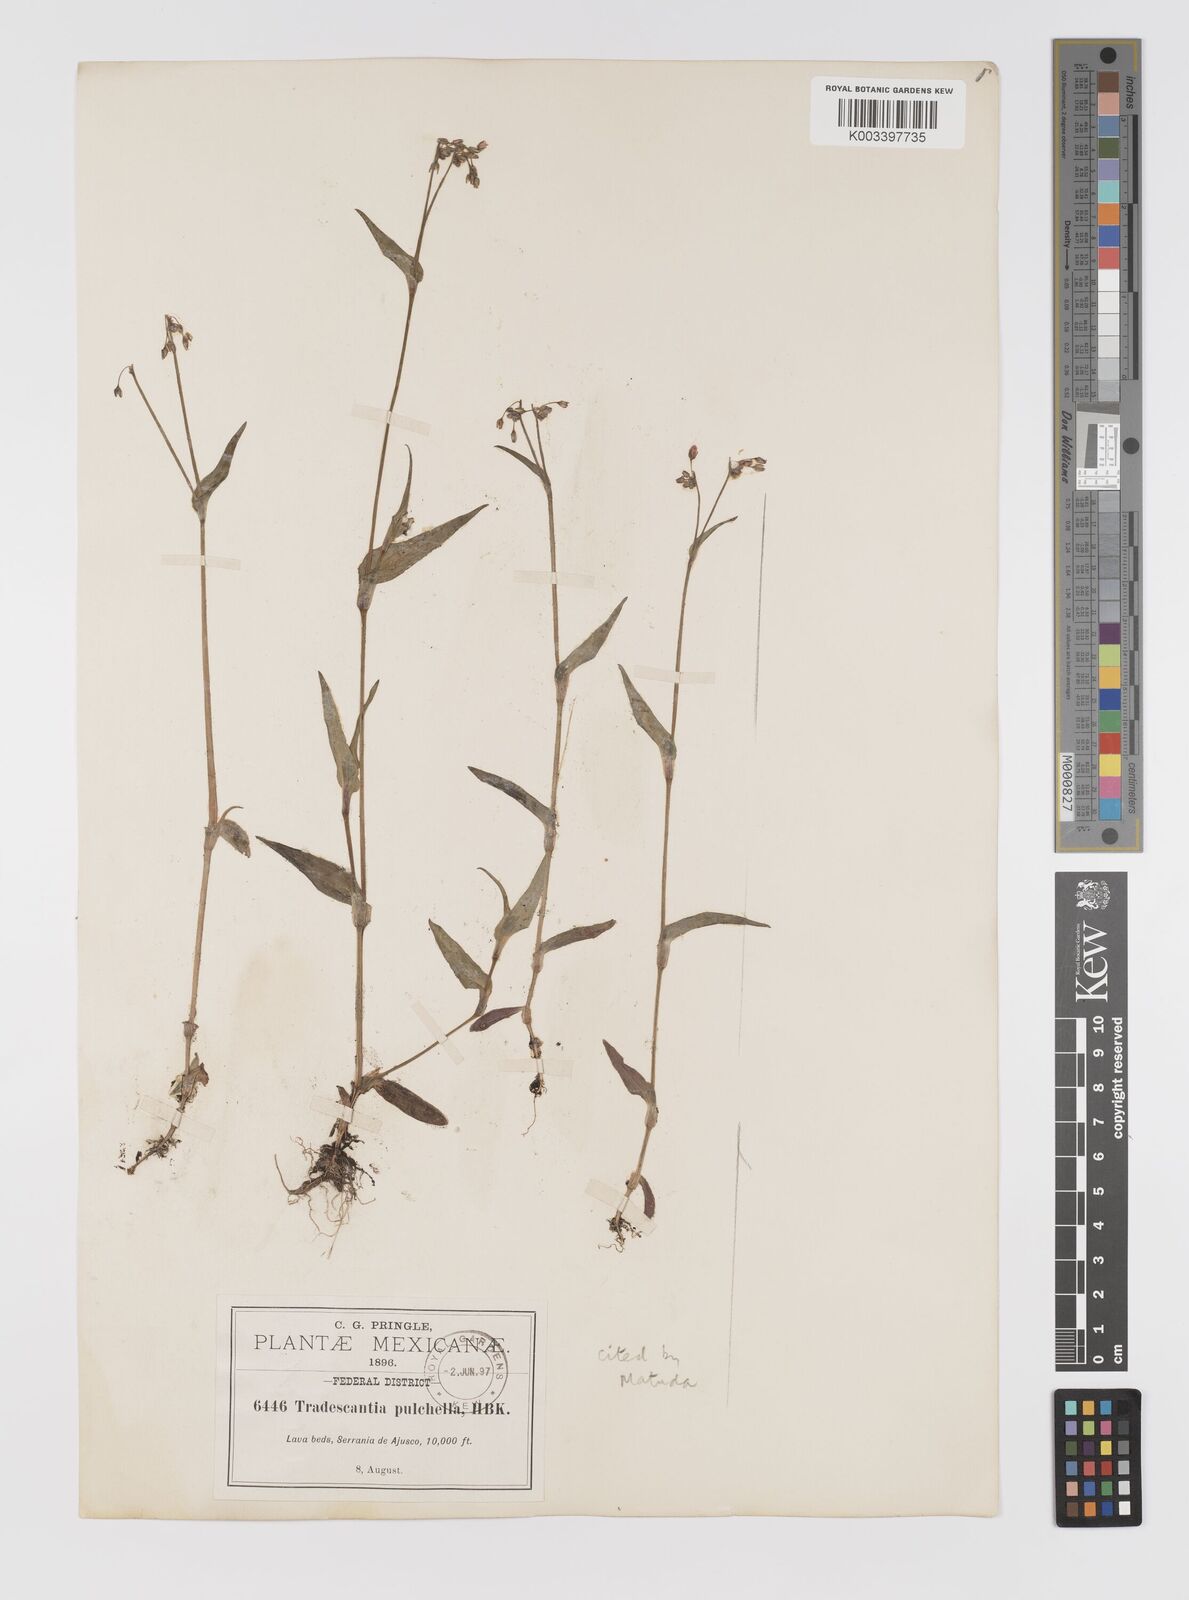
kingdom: Plantae
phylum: Tracheophyta
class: Liliopsida
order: Commelinales
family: Commelinaceae
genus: Gibasis
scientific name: Gibasis pulchella
